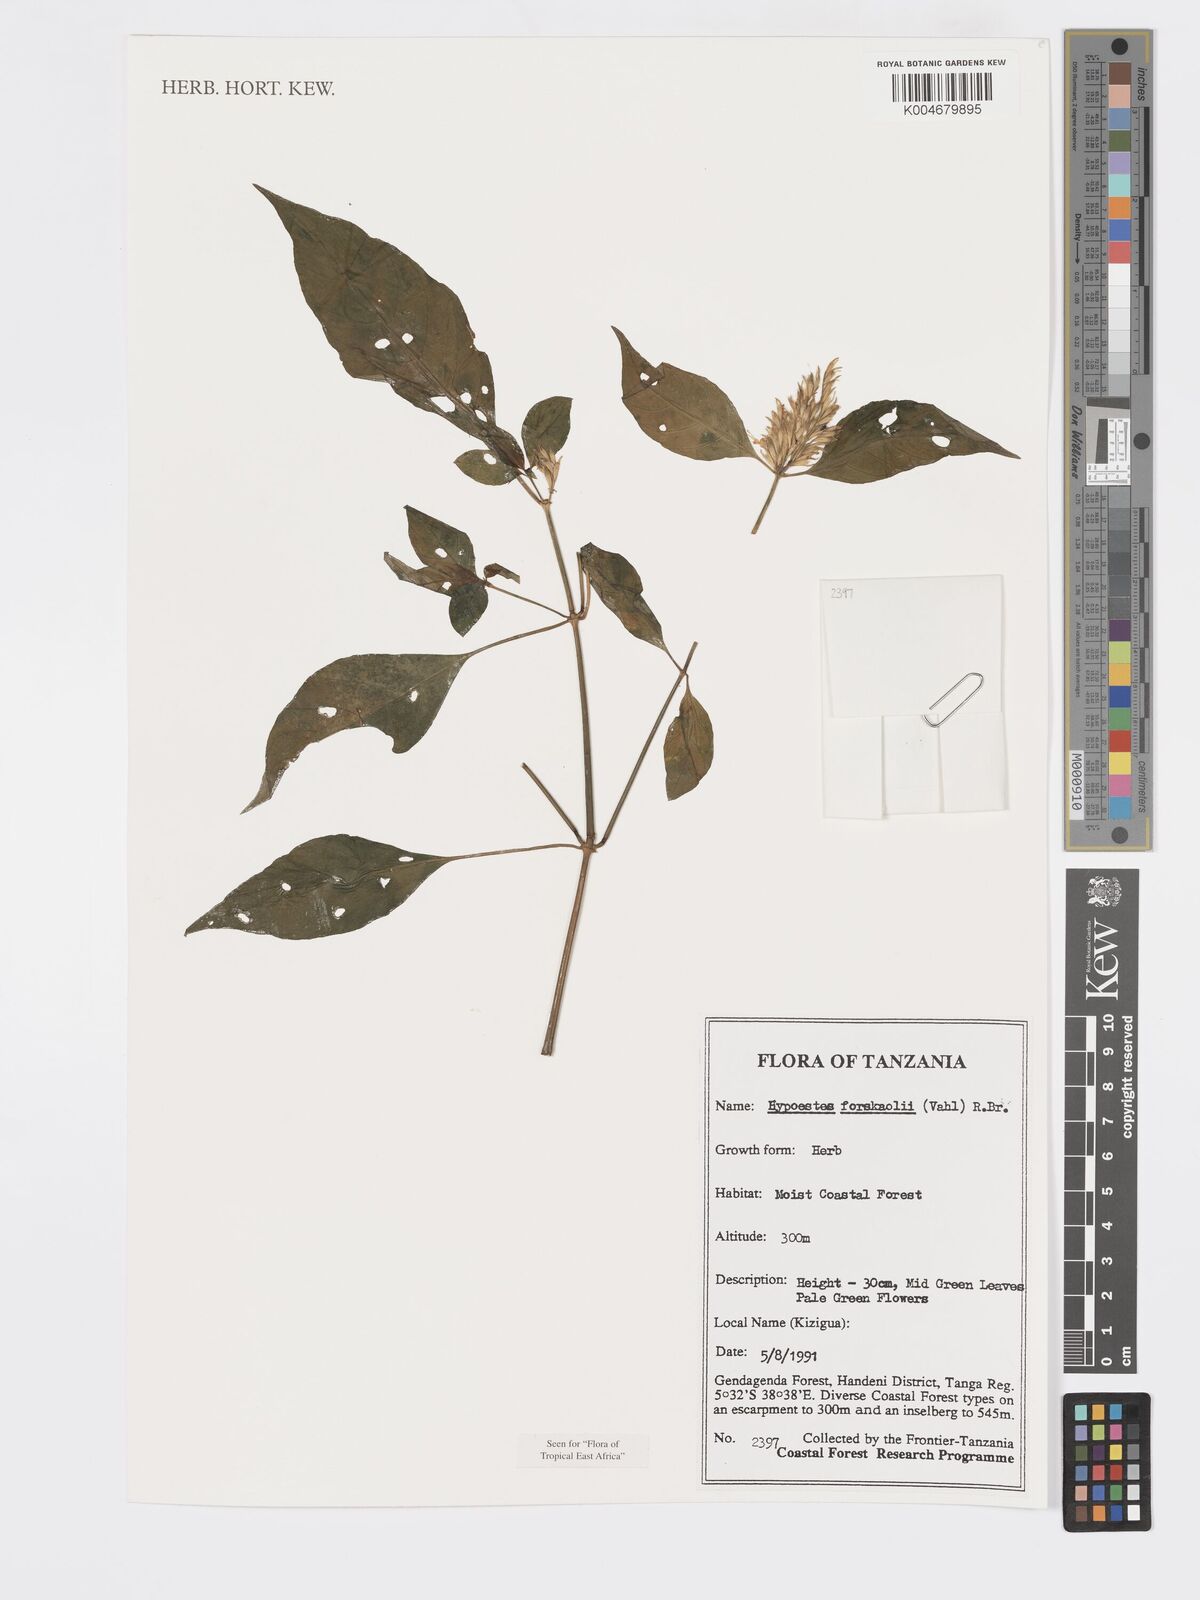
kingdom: Plantae
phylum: Tracheophyta
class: Magnoliopsida
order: Lamiales
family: Acanthaceae
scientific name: Acanthaceae
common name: Acanthaceae
